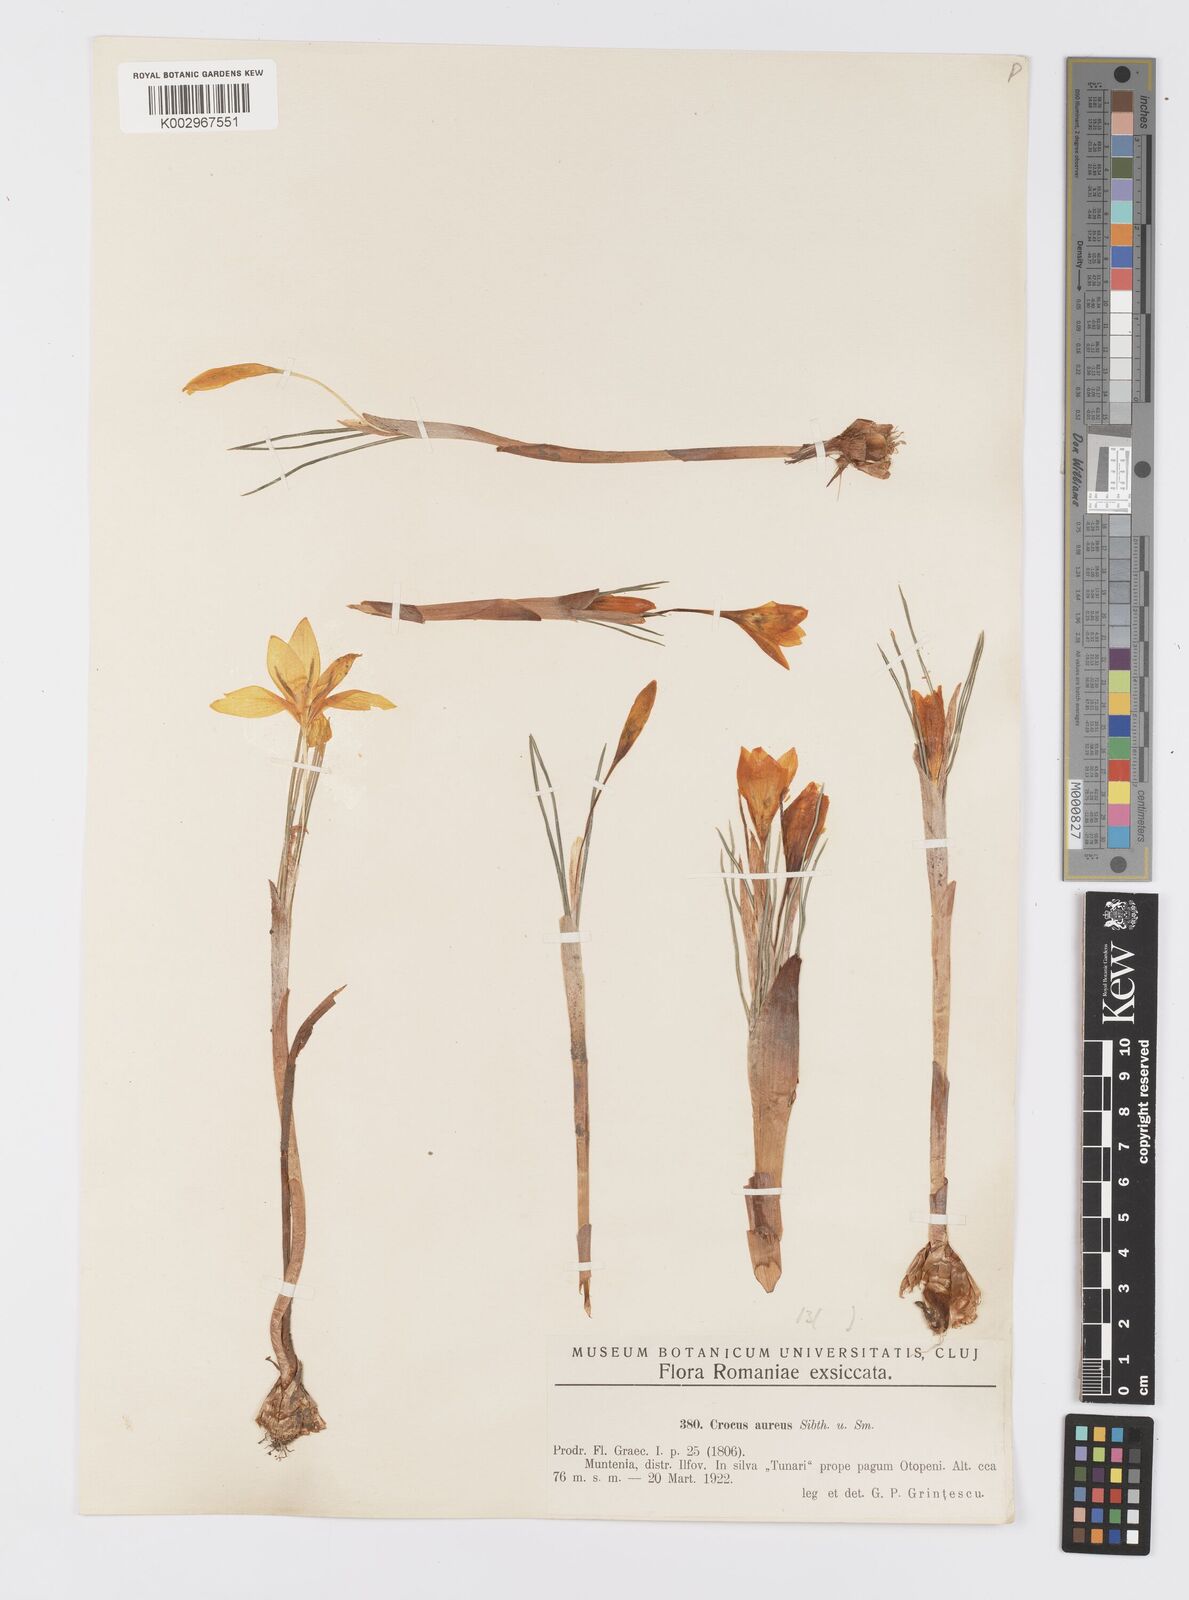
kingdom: Plantae
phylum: Tracheophyta
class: Liliopsida
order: Asparagales
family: Iridaceae
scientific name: Iridaceae
